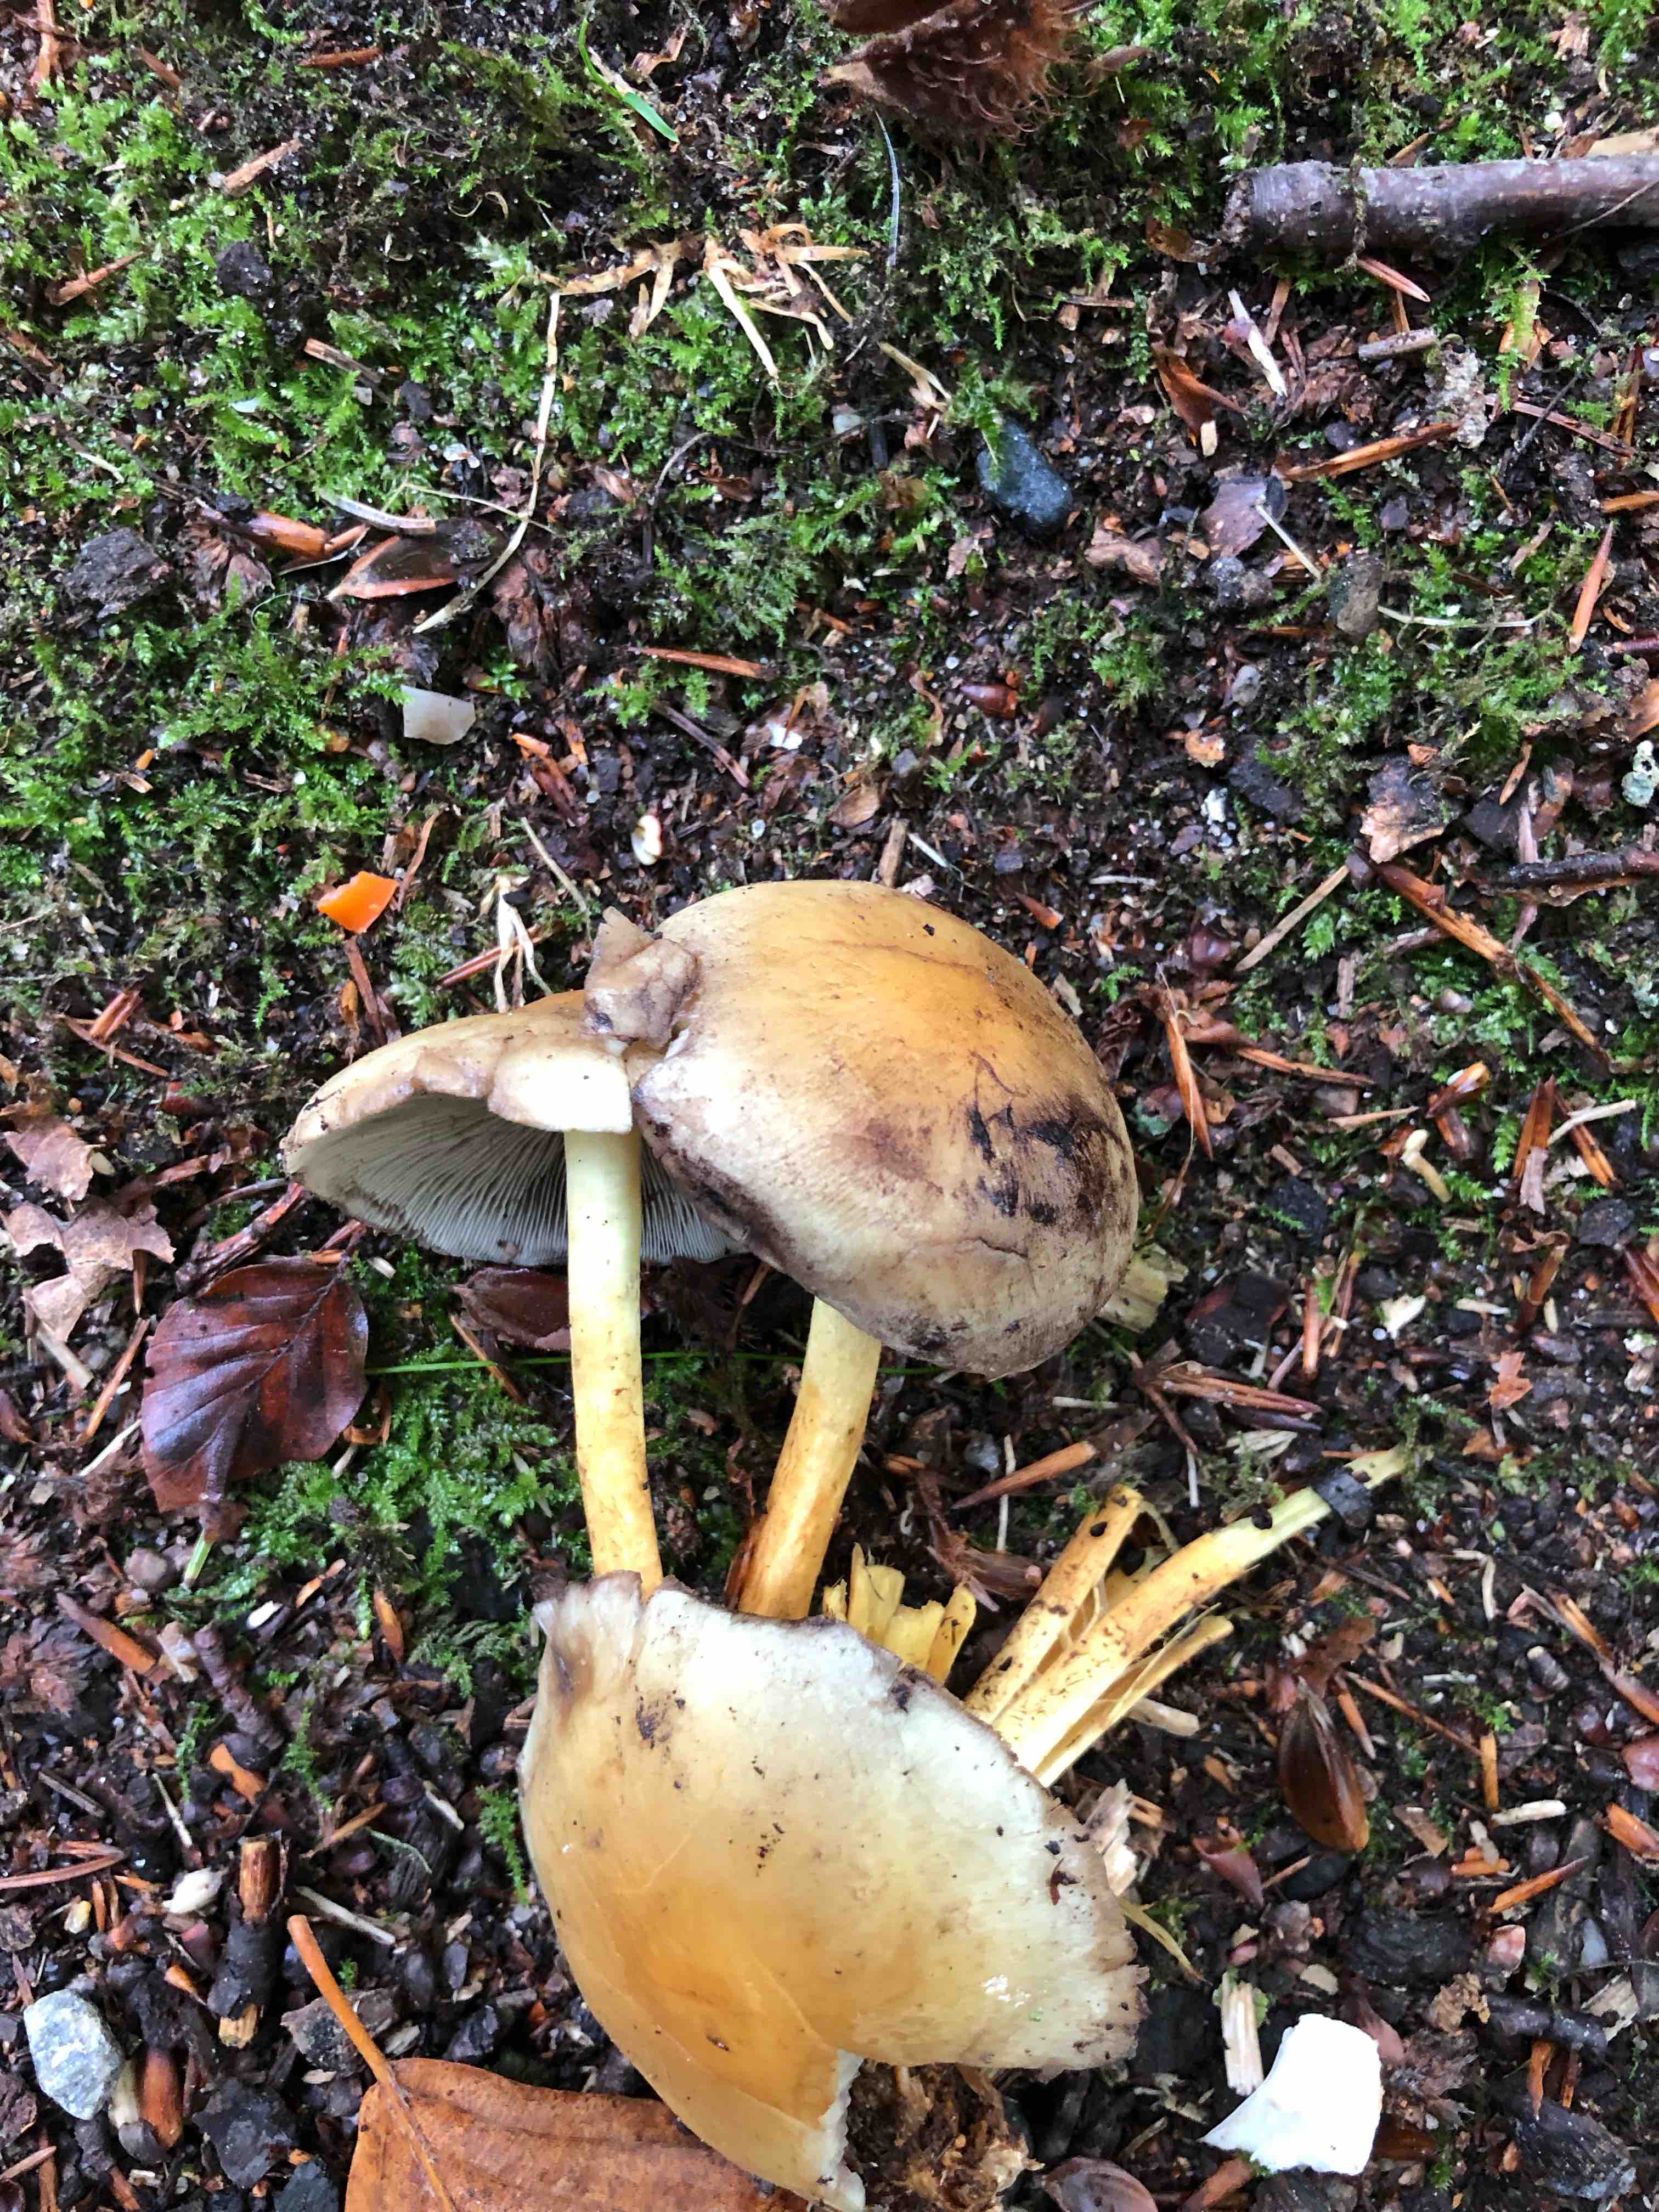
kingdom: Fungi
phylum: Basidiomycota
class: Agaricomycetes
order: Agaricales
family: Strophariaceae
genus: Hypholoma
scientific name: Hypholoma fasciculare
